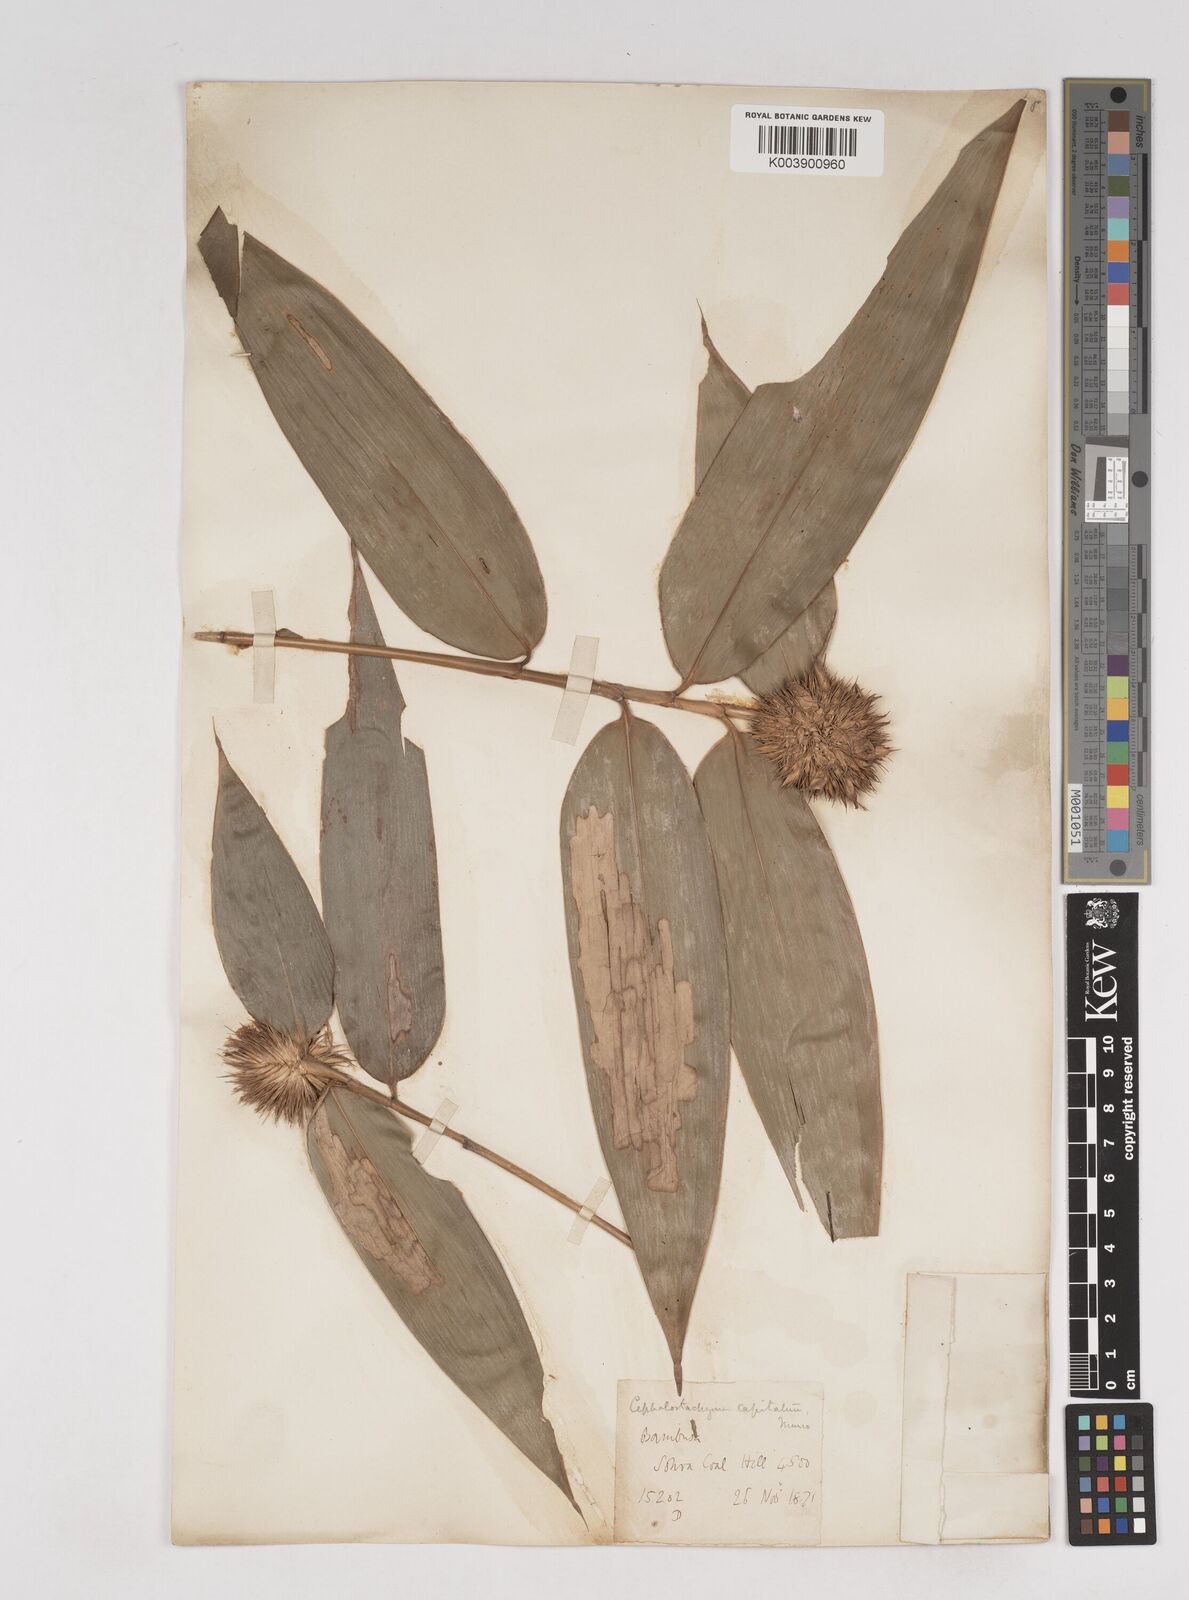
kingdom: Plantae
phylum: Tracheophyta
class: Liliopsida
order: Poales
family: Poaceae
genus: Cephalostachyum
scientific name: Cephalostachyum
